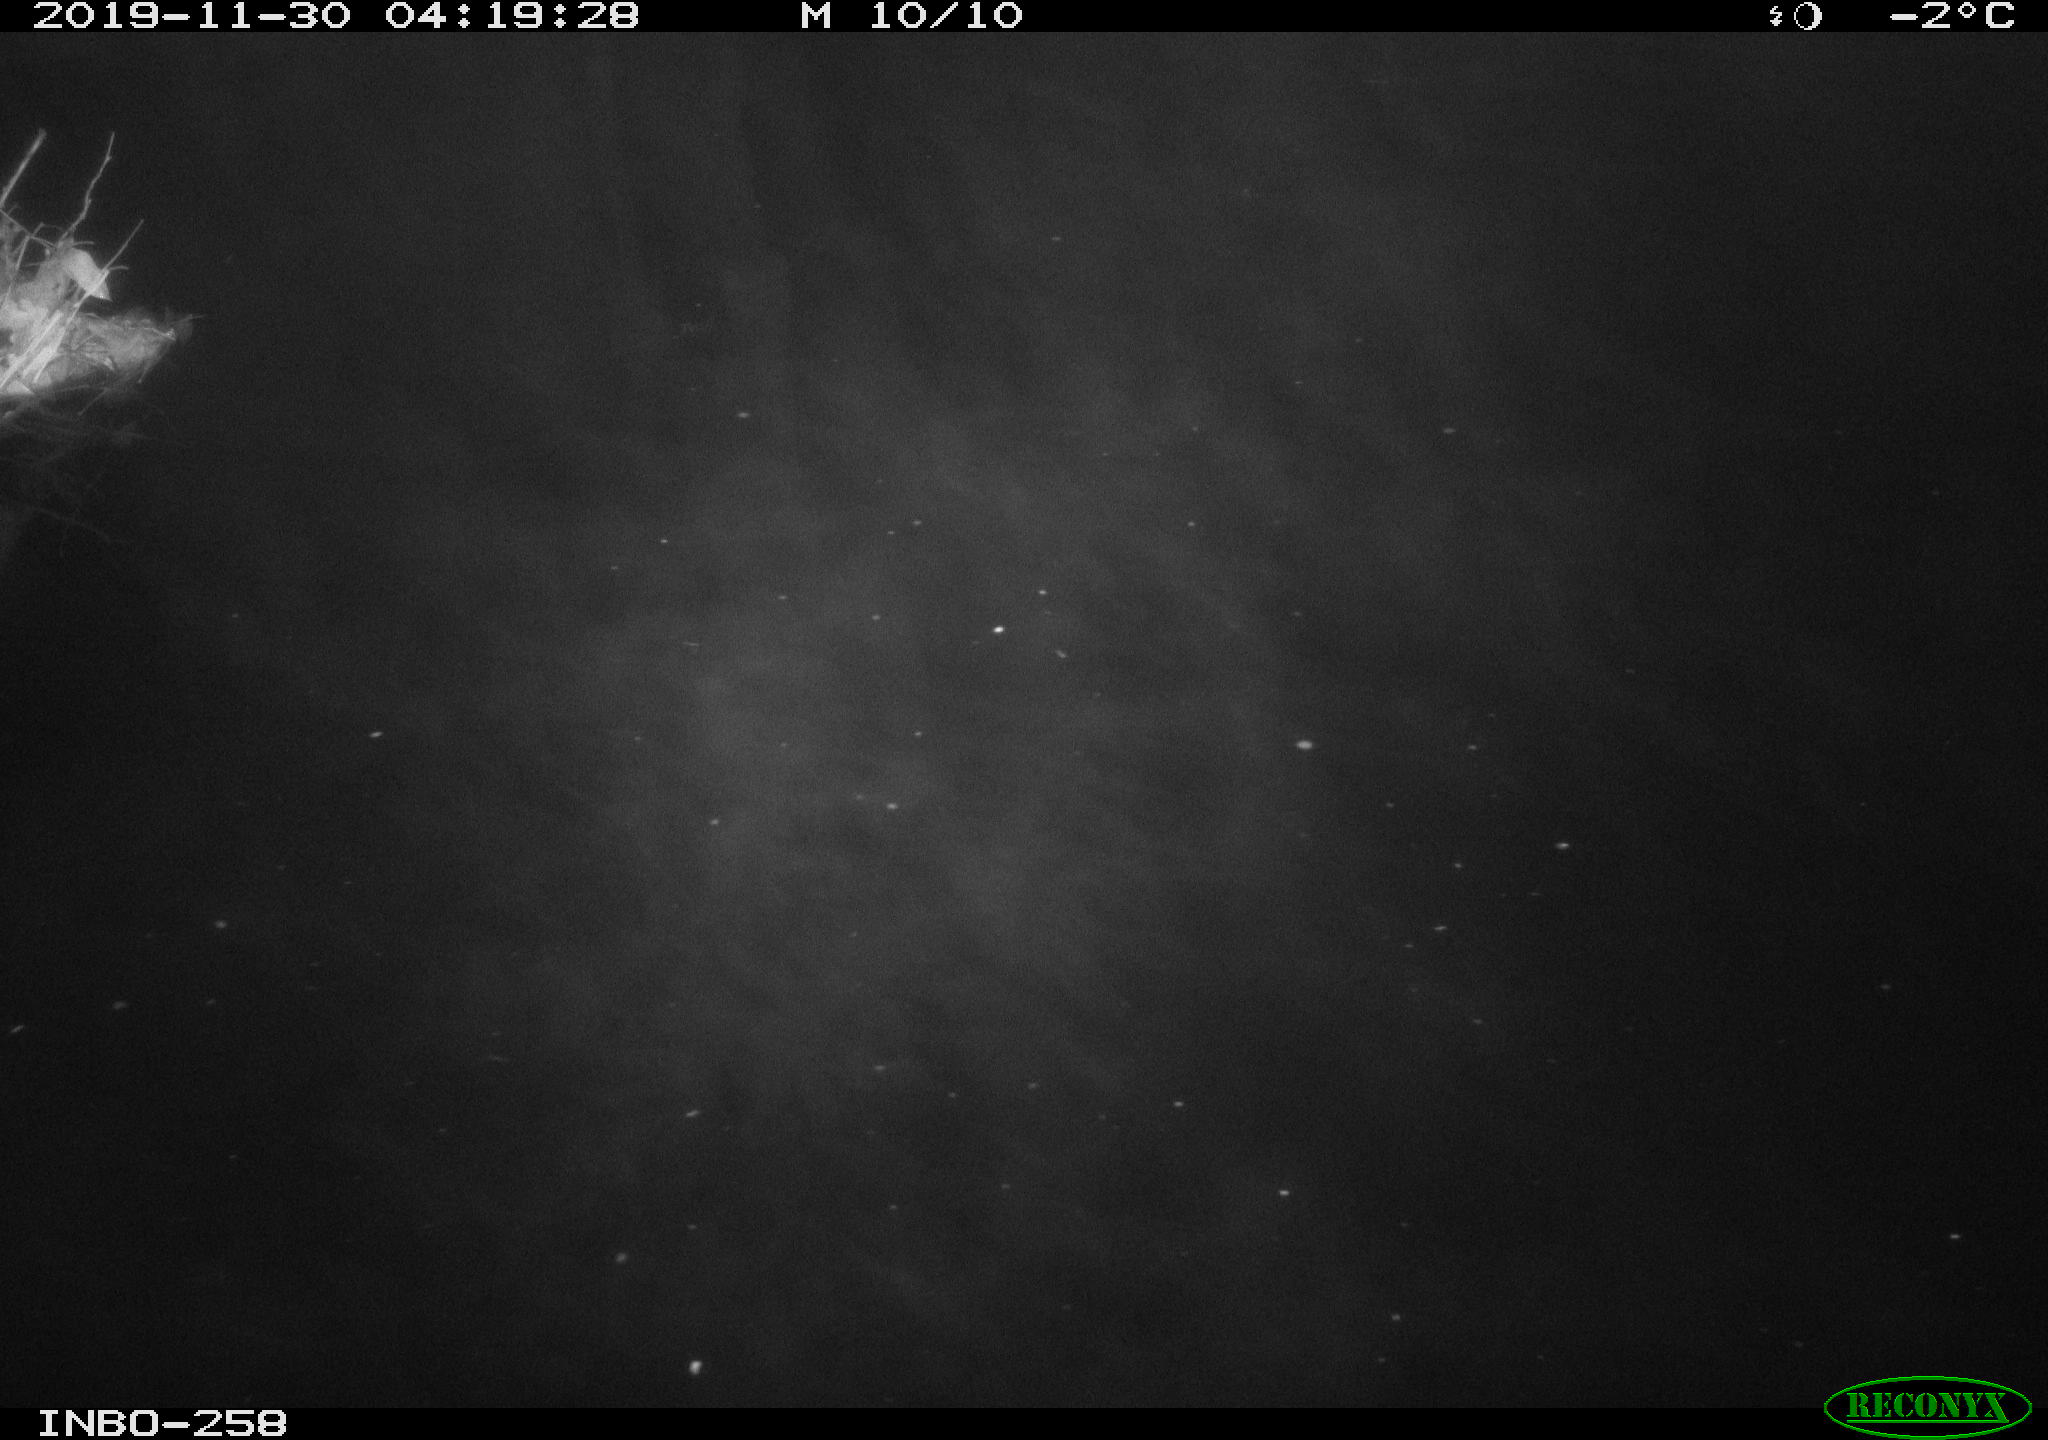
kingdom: Animalia
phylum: Chordata
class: Aves
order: Anseriformes
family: Anatidae
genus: Anas
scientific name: Anas platyrhynchos
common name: Mallard
